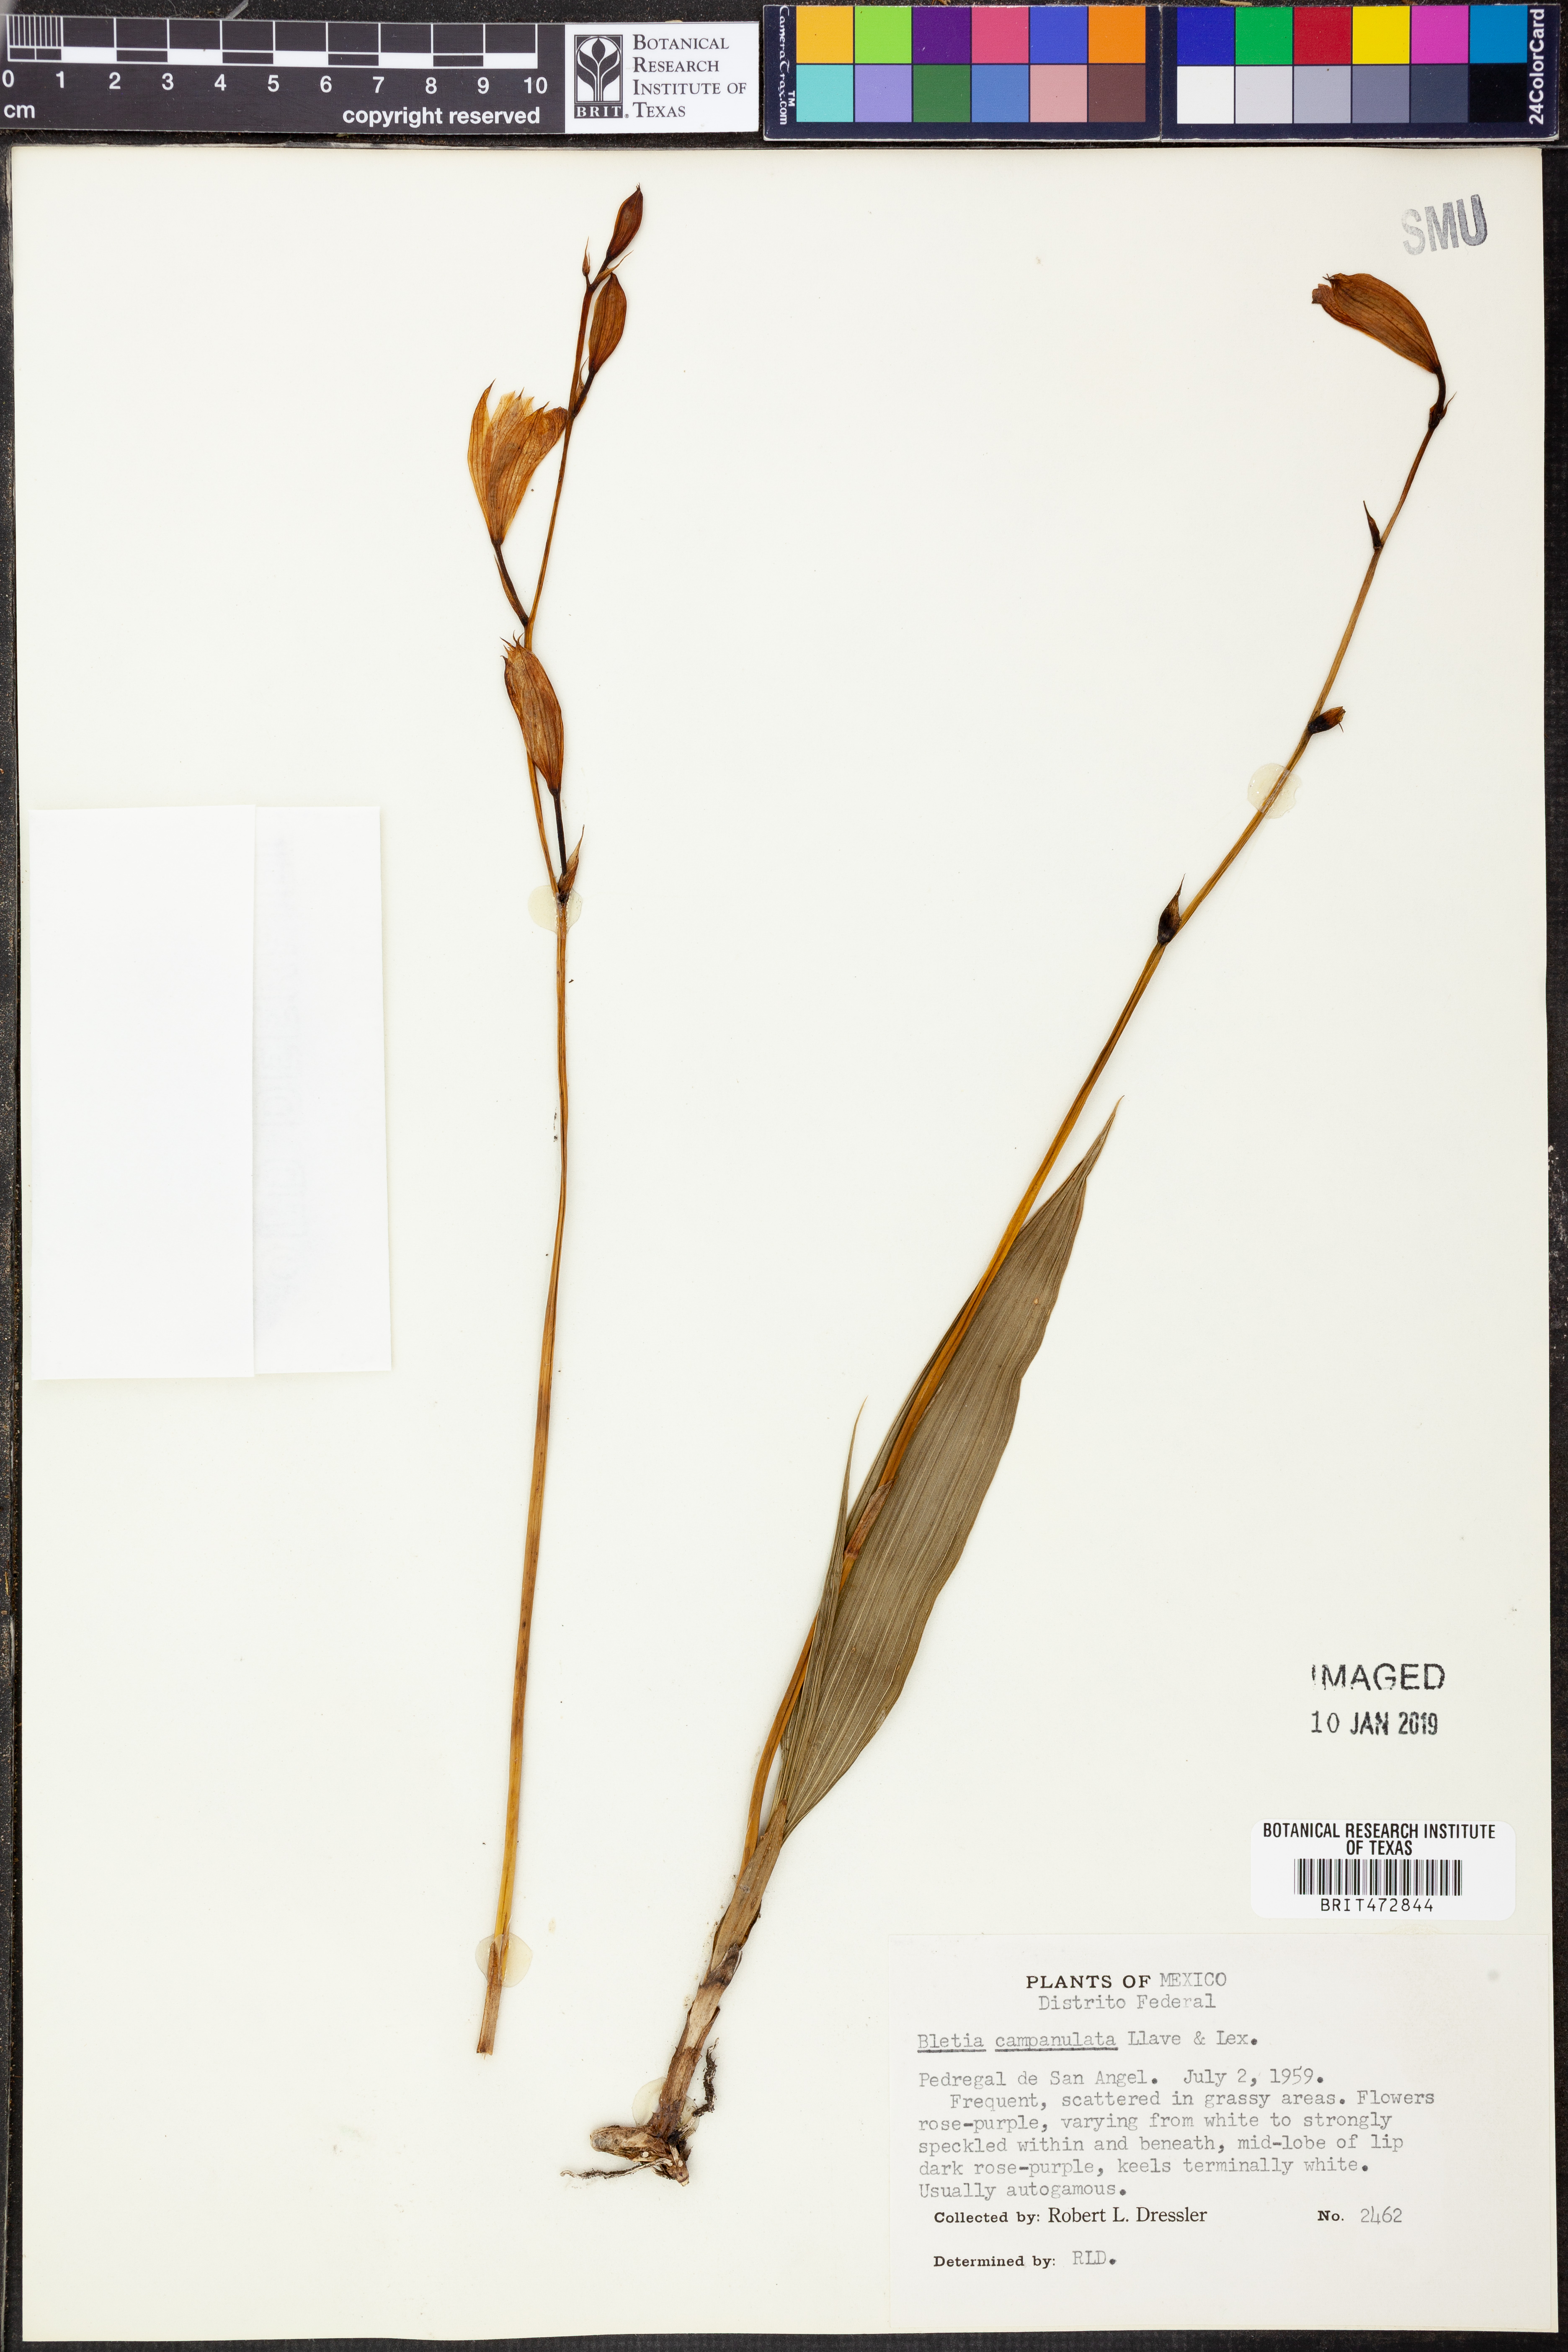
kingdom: Plantae
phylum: Tracheophyta
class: Liliopsida
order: Asparagales
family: Orchidaceae
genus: Bletia
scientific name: Bletia campanulata
